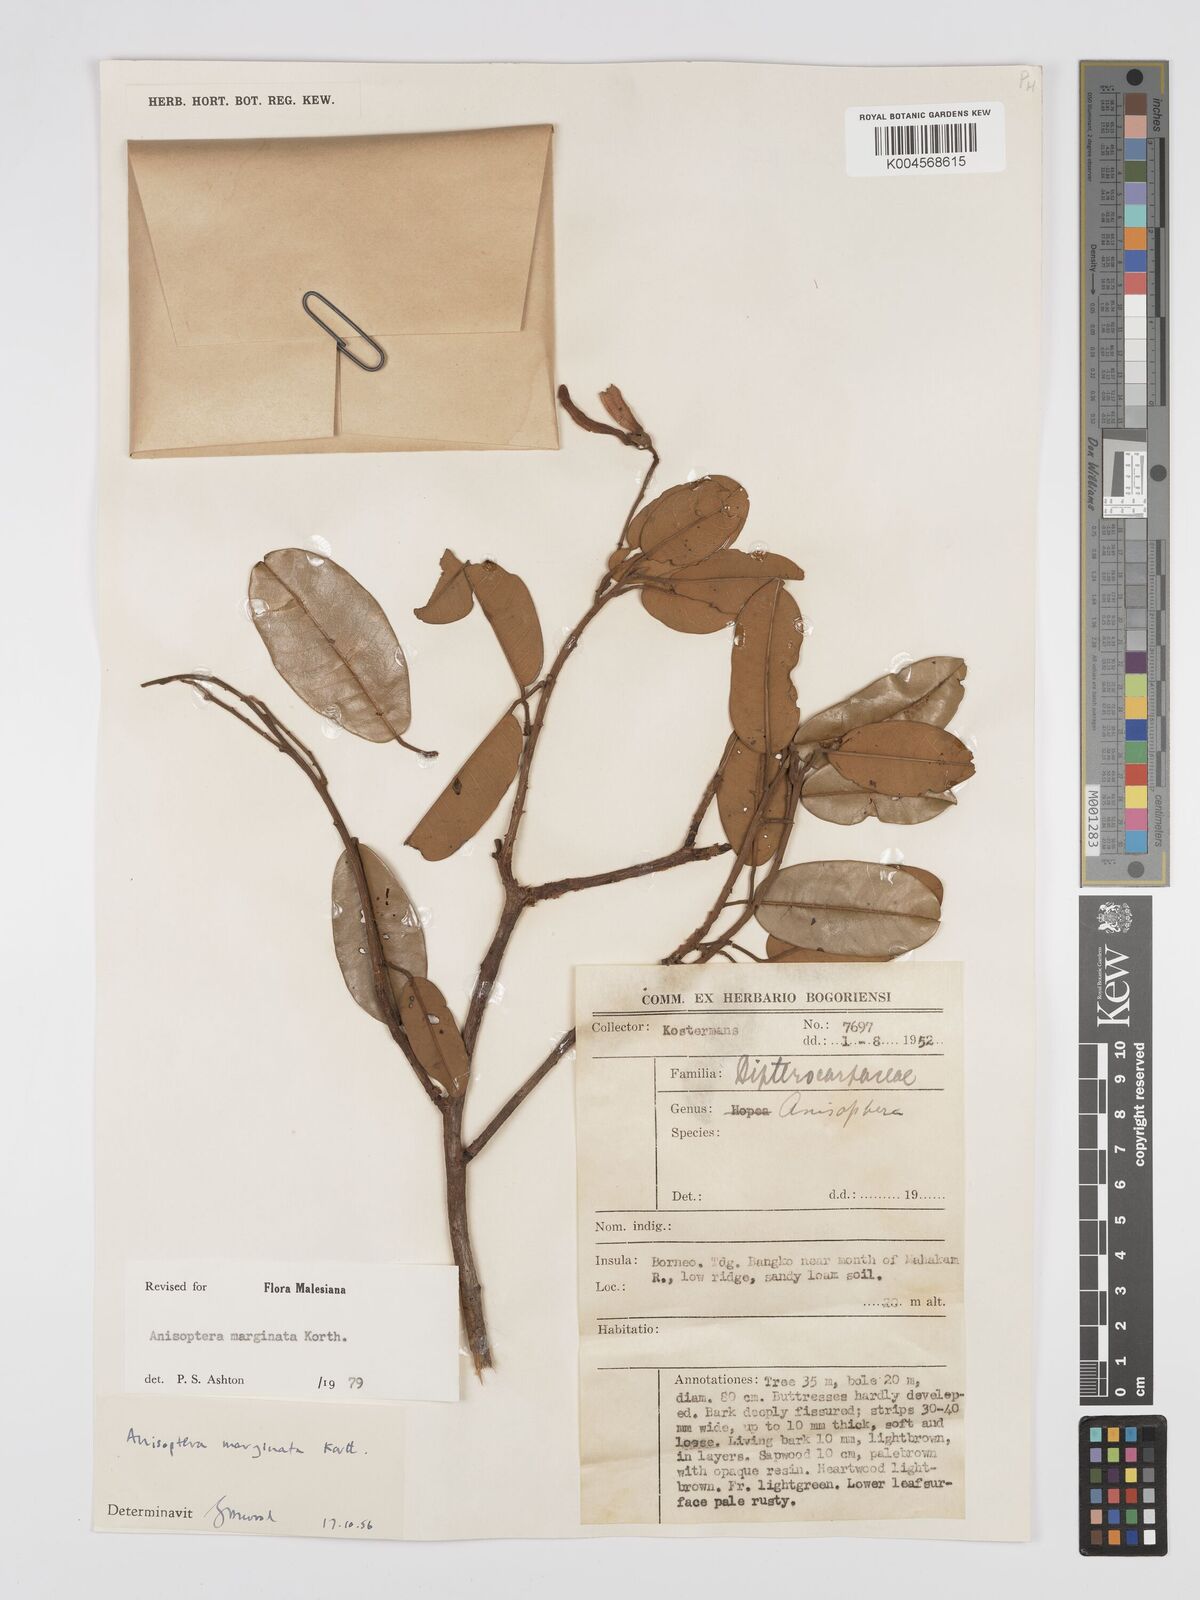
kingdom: Plantae
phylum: Tracheophyta
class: Magnoliopsida
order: Malvales
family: Dipterocarpaceae
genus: Anisoptera
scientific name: Anisoptera marginata
